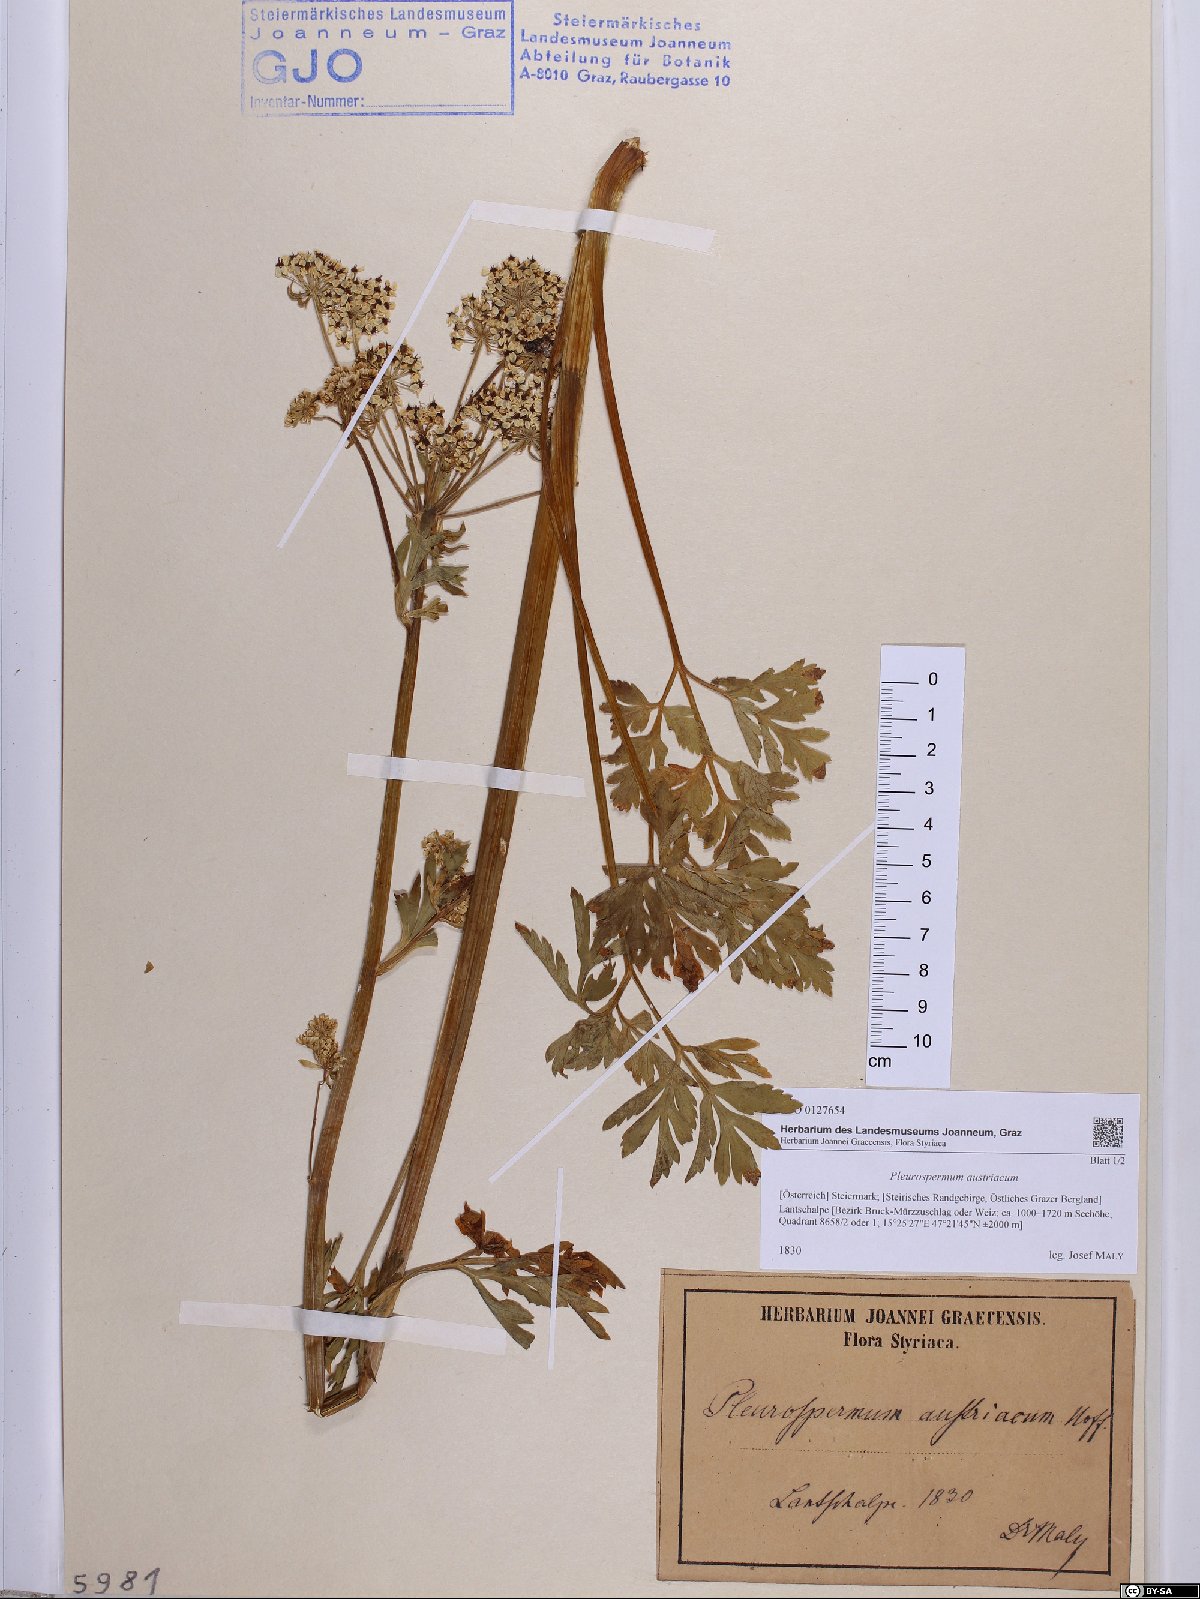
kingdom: Plantae
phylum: Tracheophyta
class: Magnoliopsida
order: Apiales
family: Apiaceae
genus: Pleurospermum
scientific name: Pleurospermum austriacum
